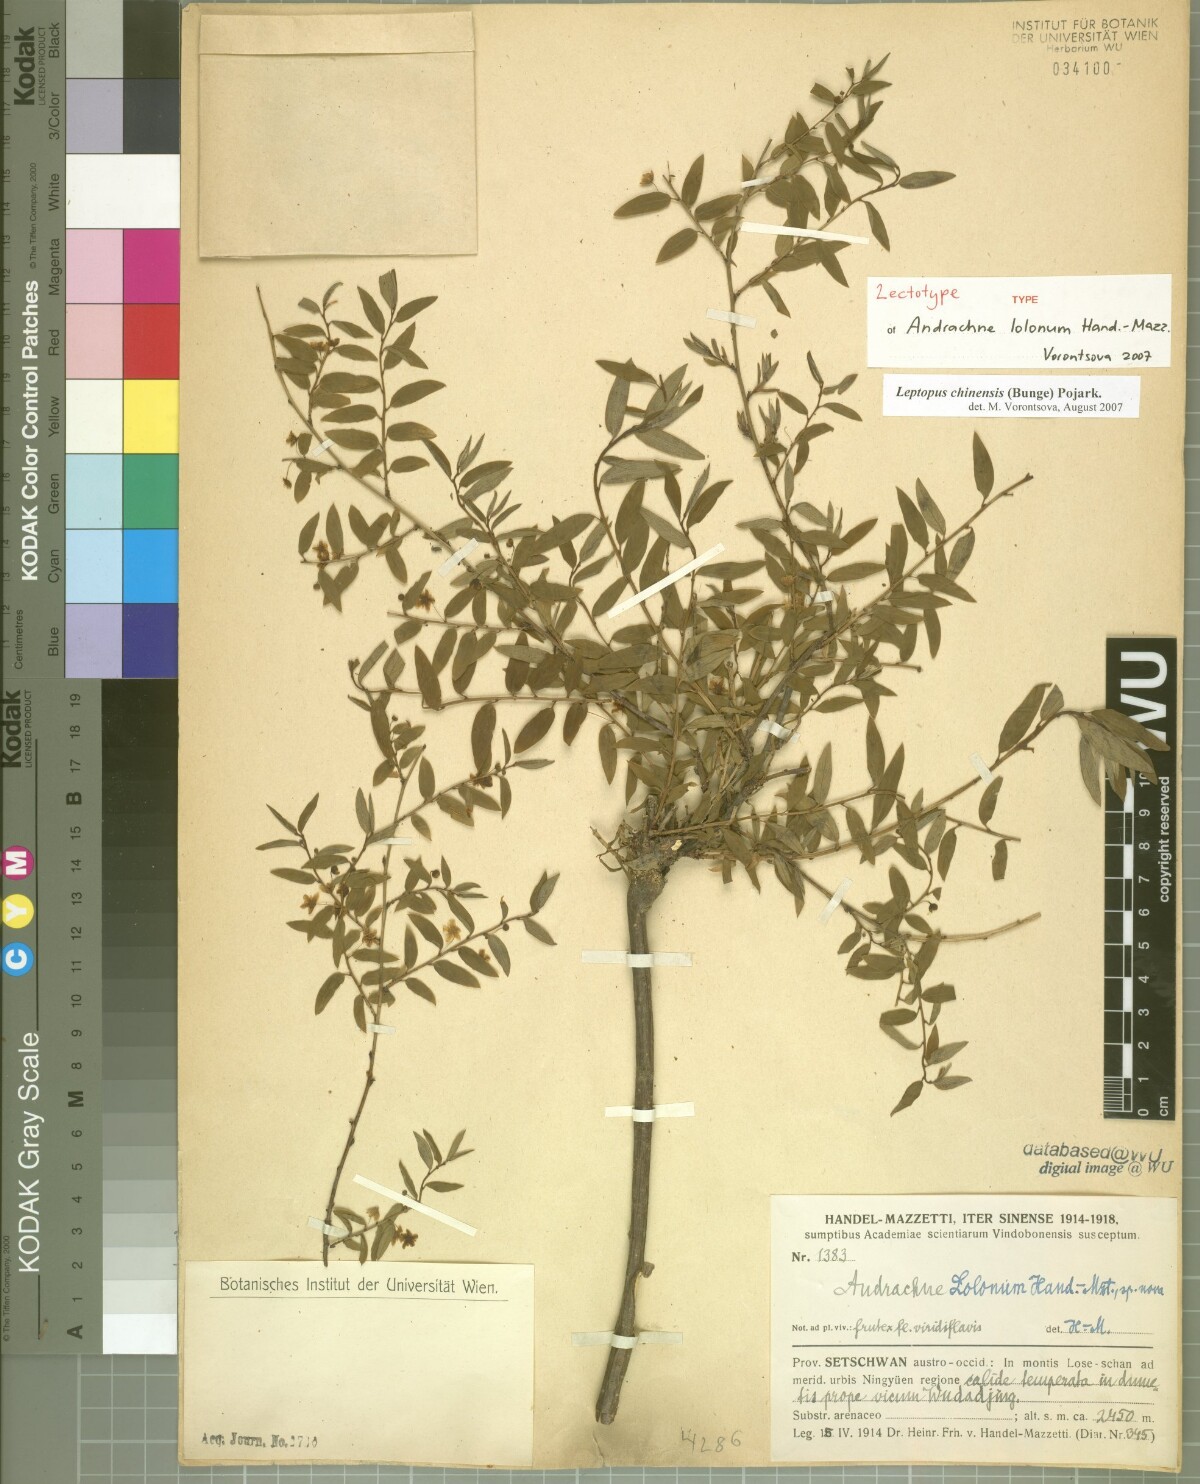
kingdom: Plantae
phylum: Tracheophyta
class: Magnoliopsida
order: Malpighiales
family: Phyllanthaceae
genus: Leptopus
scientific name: Leptopus chinensis
